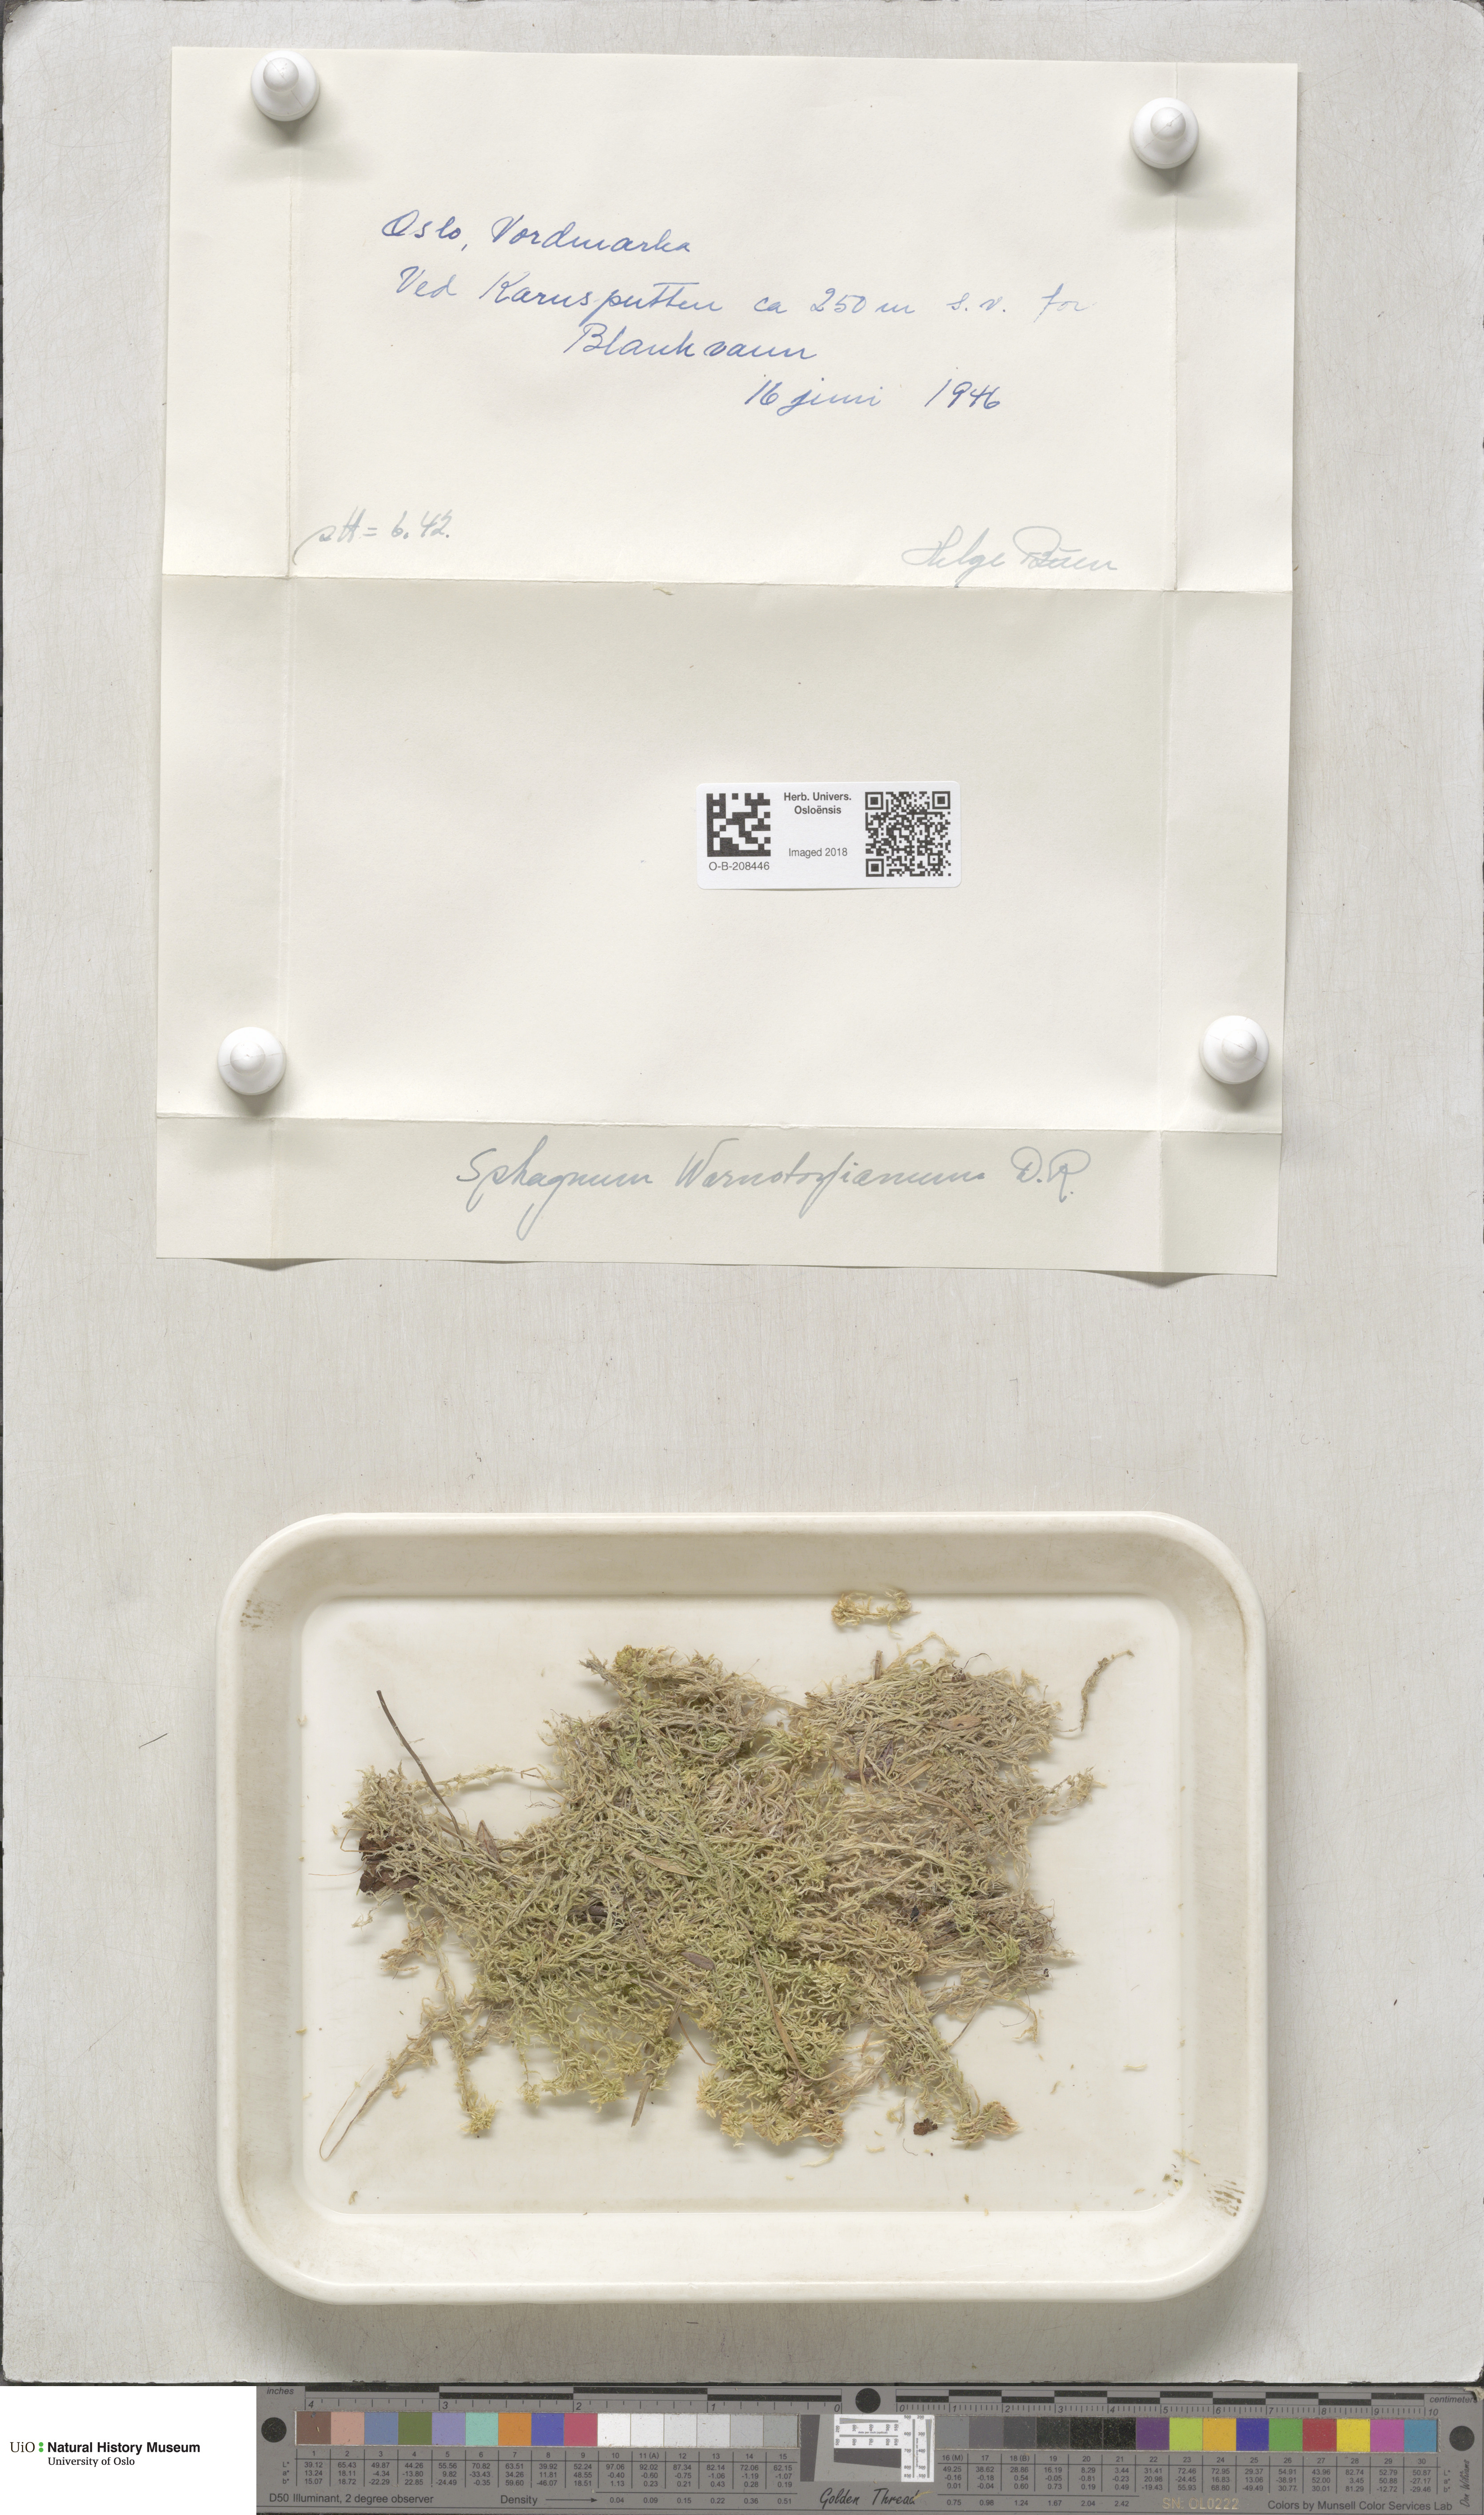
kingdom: Plantae
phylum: Bryophyta
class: Sphagnopsida
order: Sphagnales
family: Sphagnaceae
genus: Sphagnum
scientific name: Sphagnum warnstorfii
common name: Warnstorf's peat moss
